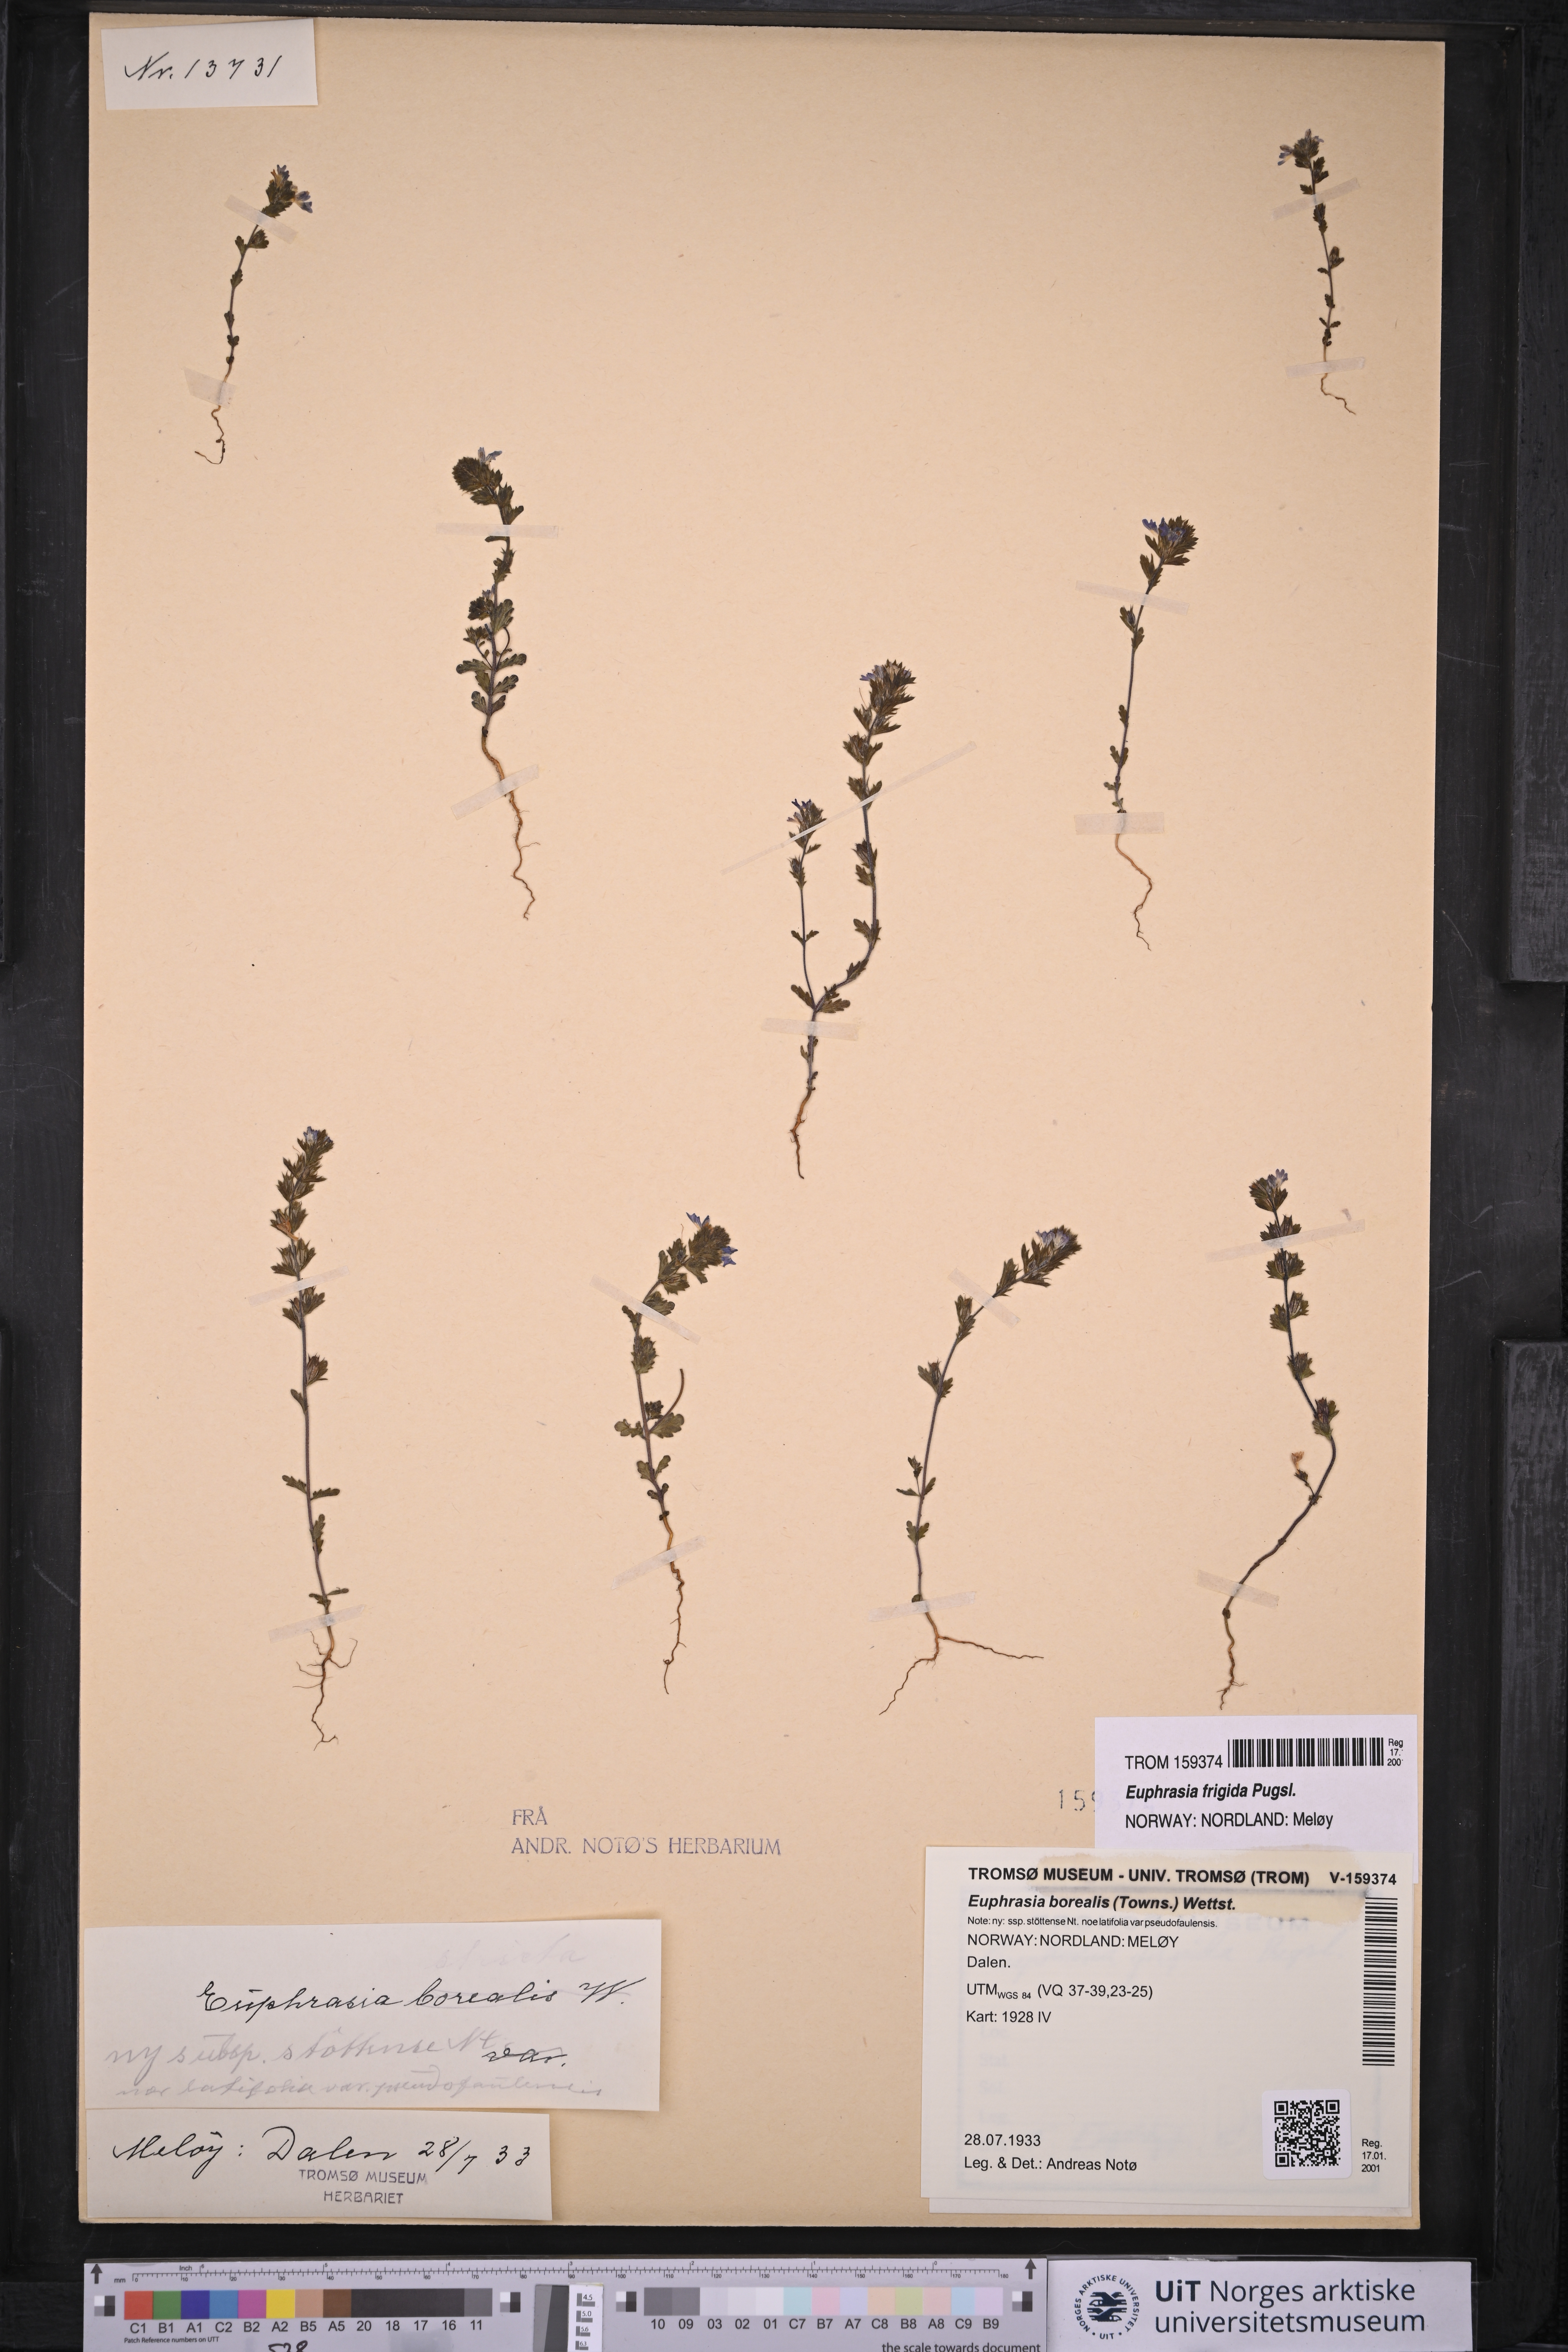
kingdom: Plantae
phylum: Tracheophyta
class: Magnoliopsida
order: Lamiales
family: Orobanchaceae
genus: Euphrasia
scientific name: Euphrasia frigida
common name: An eyebright
